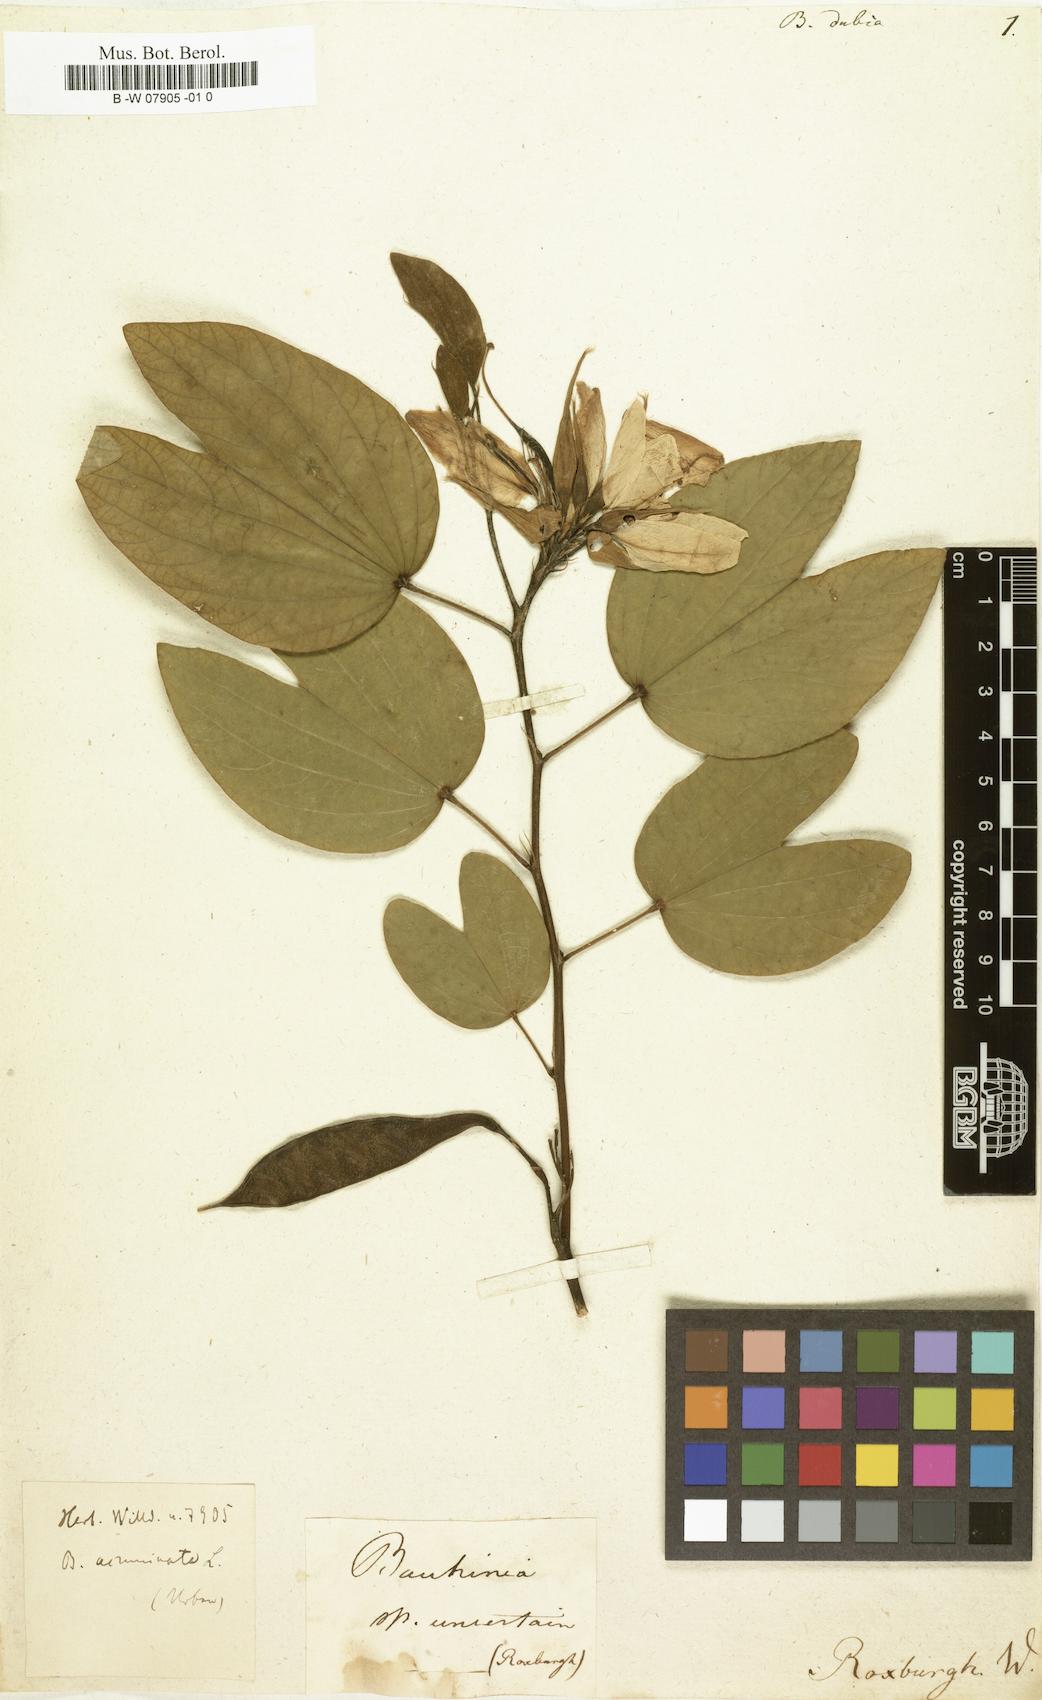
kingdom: Plantae
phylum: Tracheophyta
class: Magnoliopsida
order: Fabales
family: Fabaceae
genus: Bauhinia
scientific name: Bauhinia dubia
